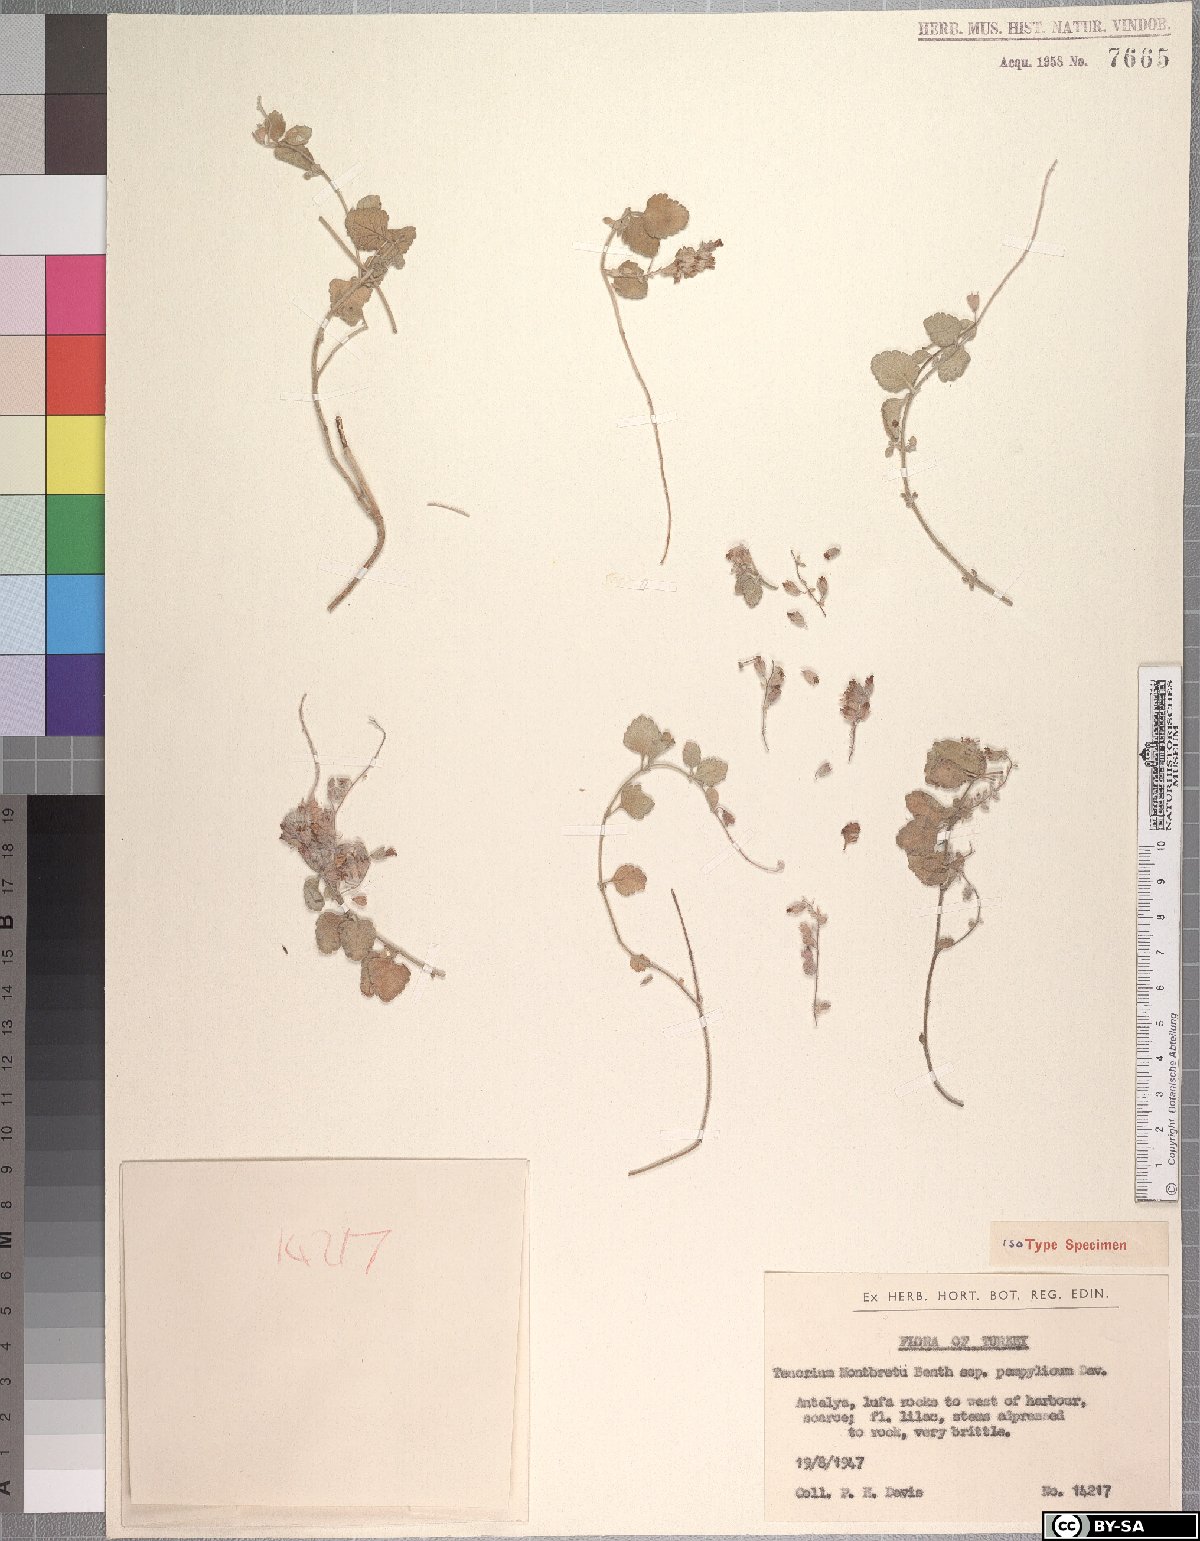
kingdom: Plantae
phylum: Tracheophyta
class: Magnoliopsida
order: Lamiales
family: Lamiaceae
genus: Teucrium
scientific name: Teucrium montbretii
